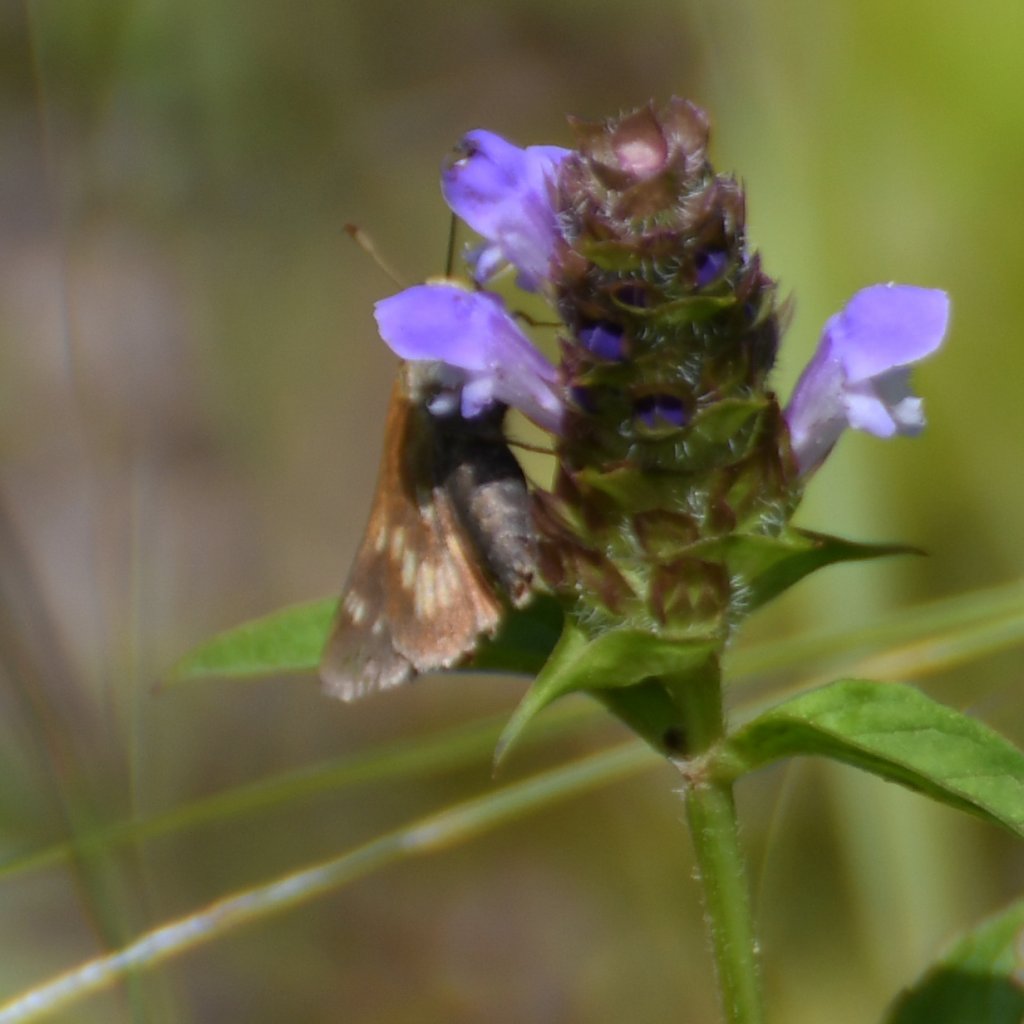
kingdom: Animalia
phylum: Arthropoda
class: Insecta
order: Lepidoptera
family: Hesperiidae
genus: Polites
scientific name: Polites
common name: Long Dash Skipper
